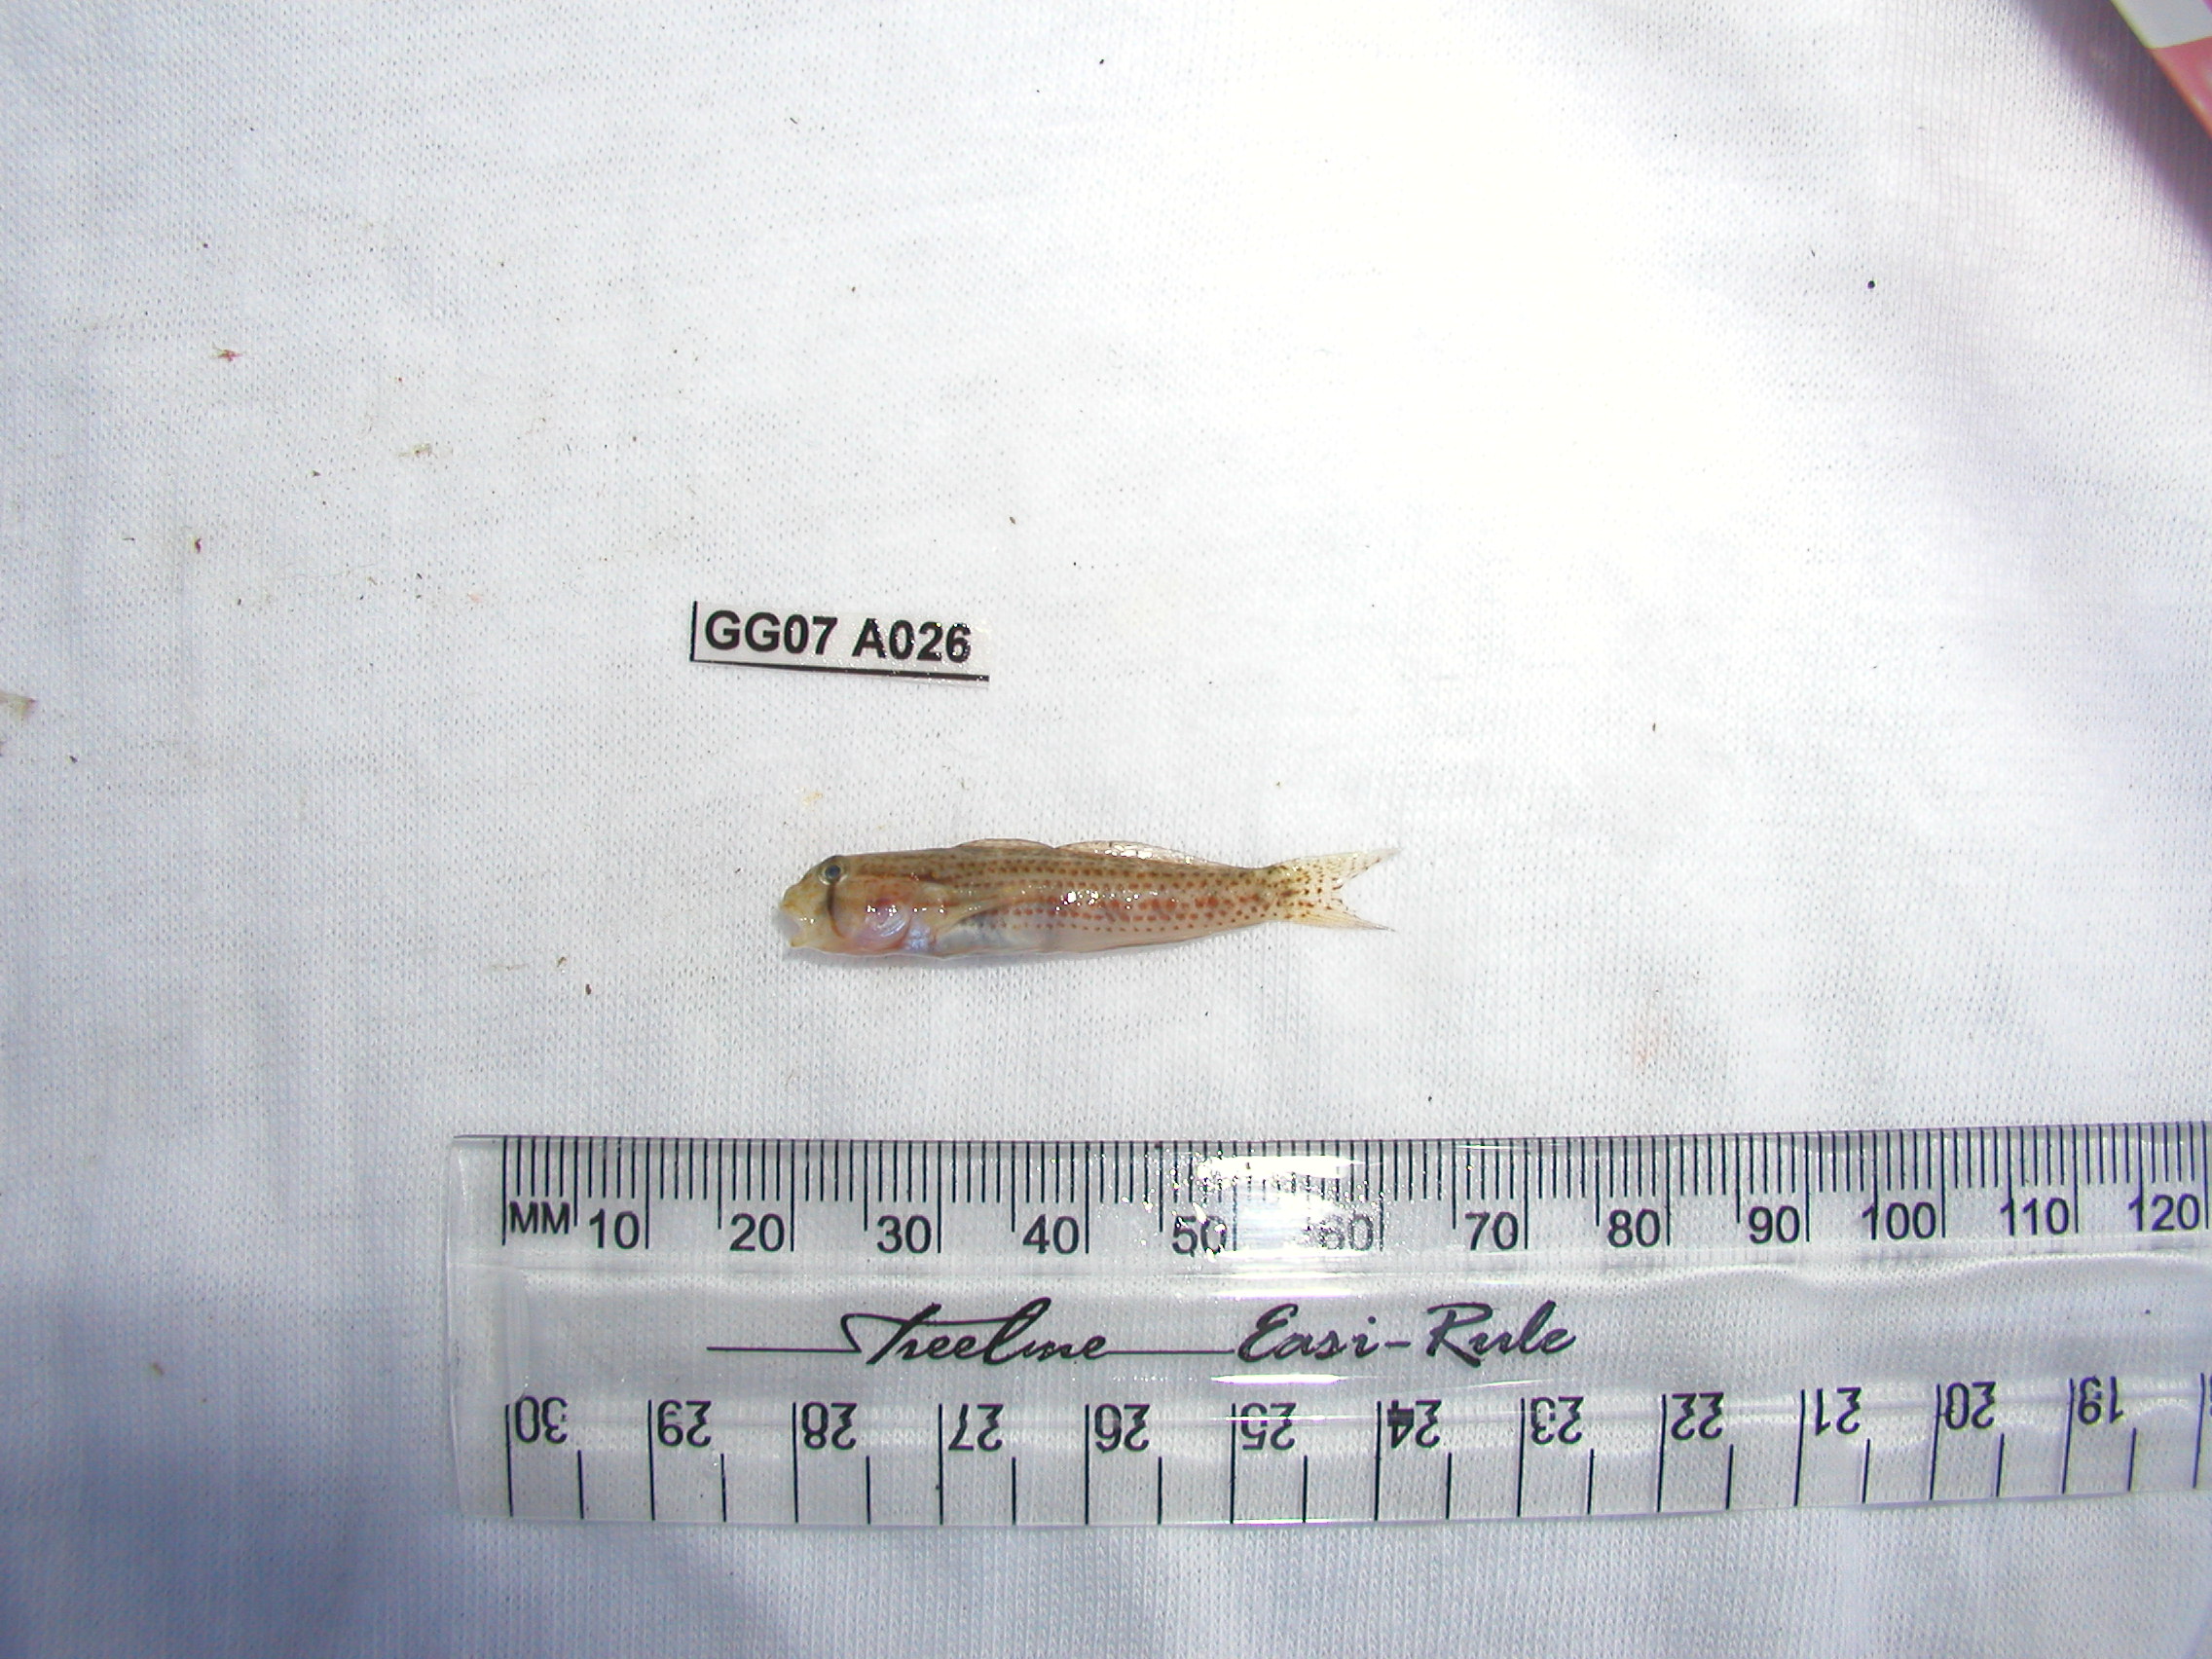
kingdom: Animalia
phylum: Chordata
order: Perciformes
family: Gobiidae
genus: Gnatholepis
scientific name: Gnatholepis anjerensis
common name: Anjer eye-bar goby
